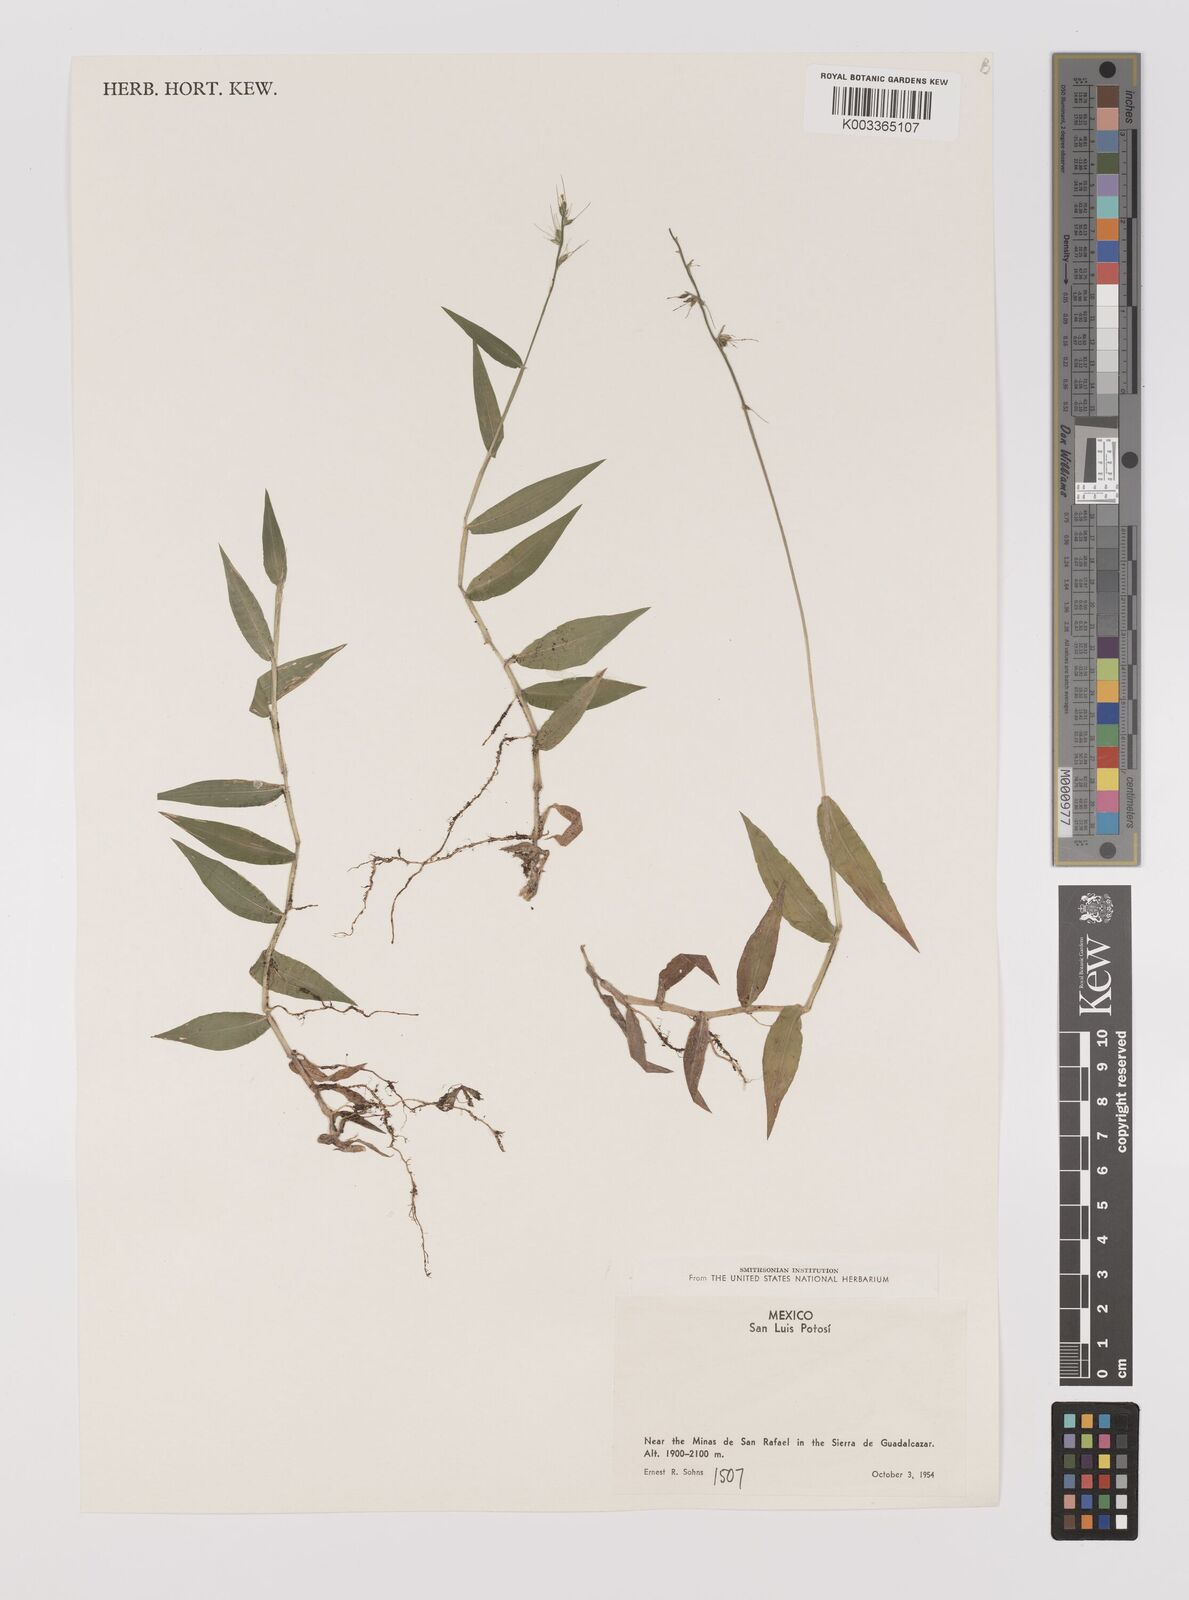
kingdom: Plantae
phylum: Tracheophyta
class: Liliopsida
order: Poales
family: Poaceae
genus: Oplismenus
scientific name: Oplismenus hirtellus
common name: Basketgrass
